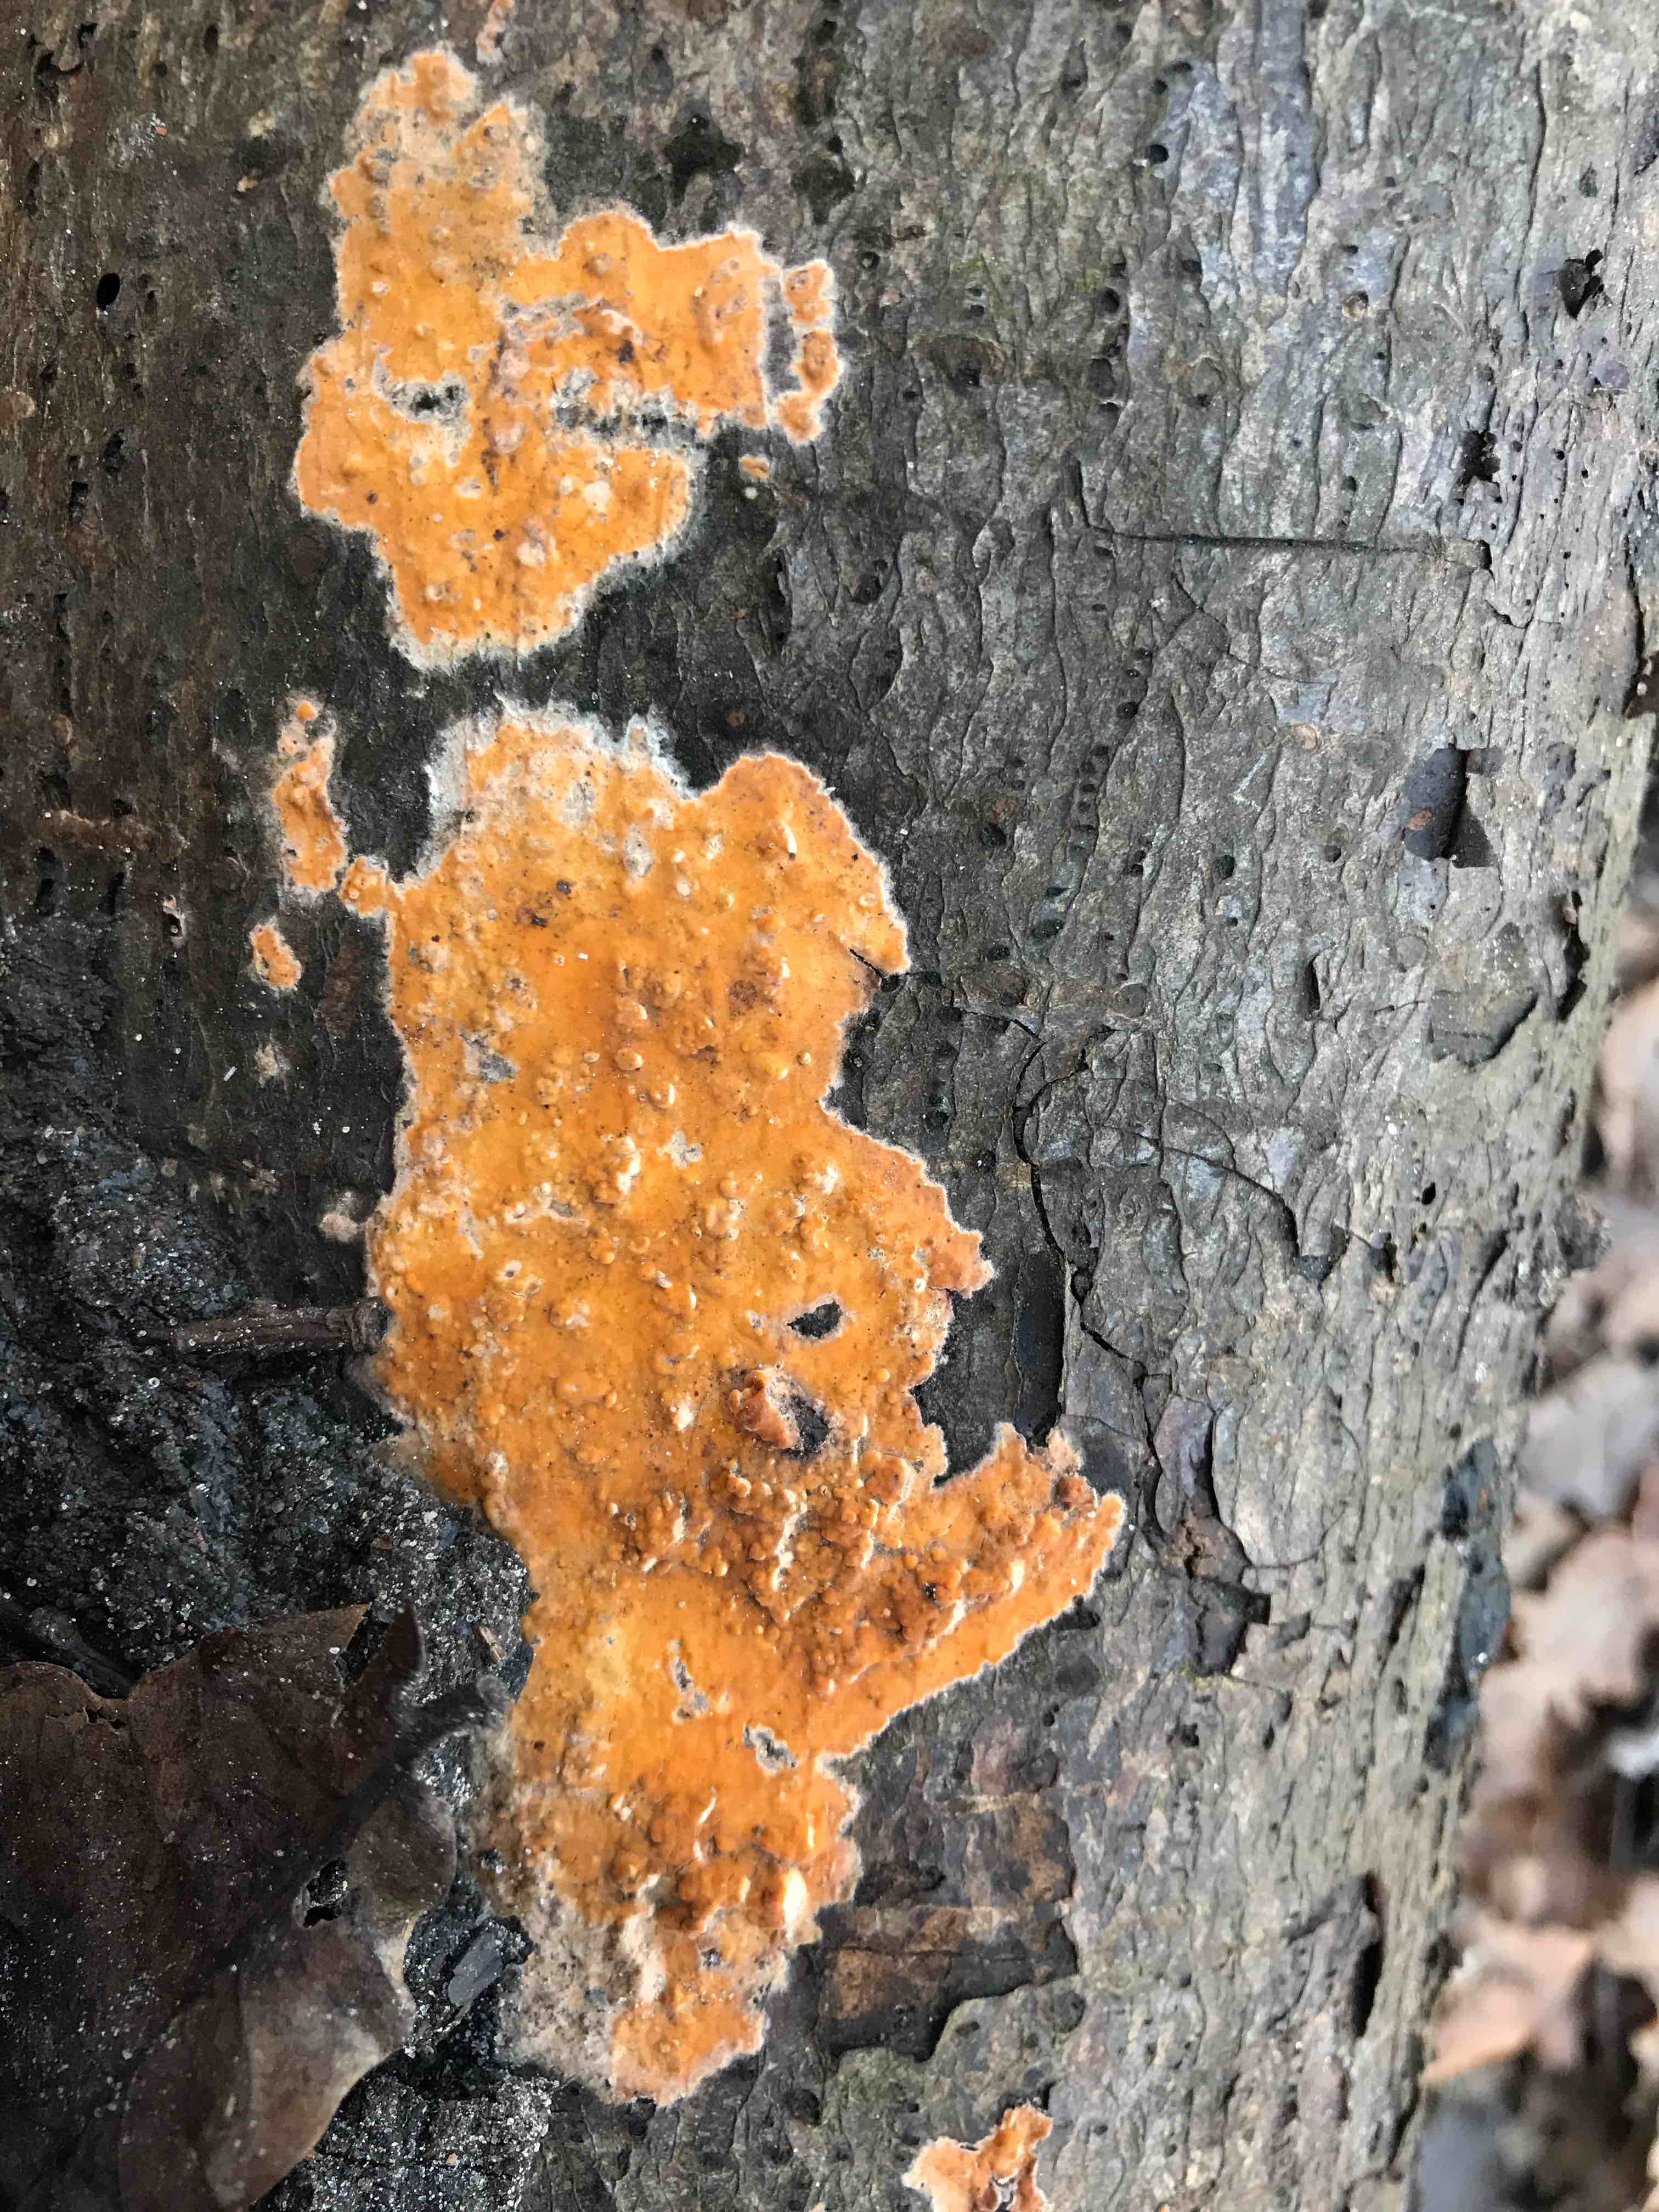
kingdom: Fungi
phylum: Basidiomycota
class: Agaricomycetes
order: Russulales
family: Peniophoraceae
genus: Peniophora
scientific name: Peniophora incarnata
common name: laksefarvet voksskind
